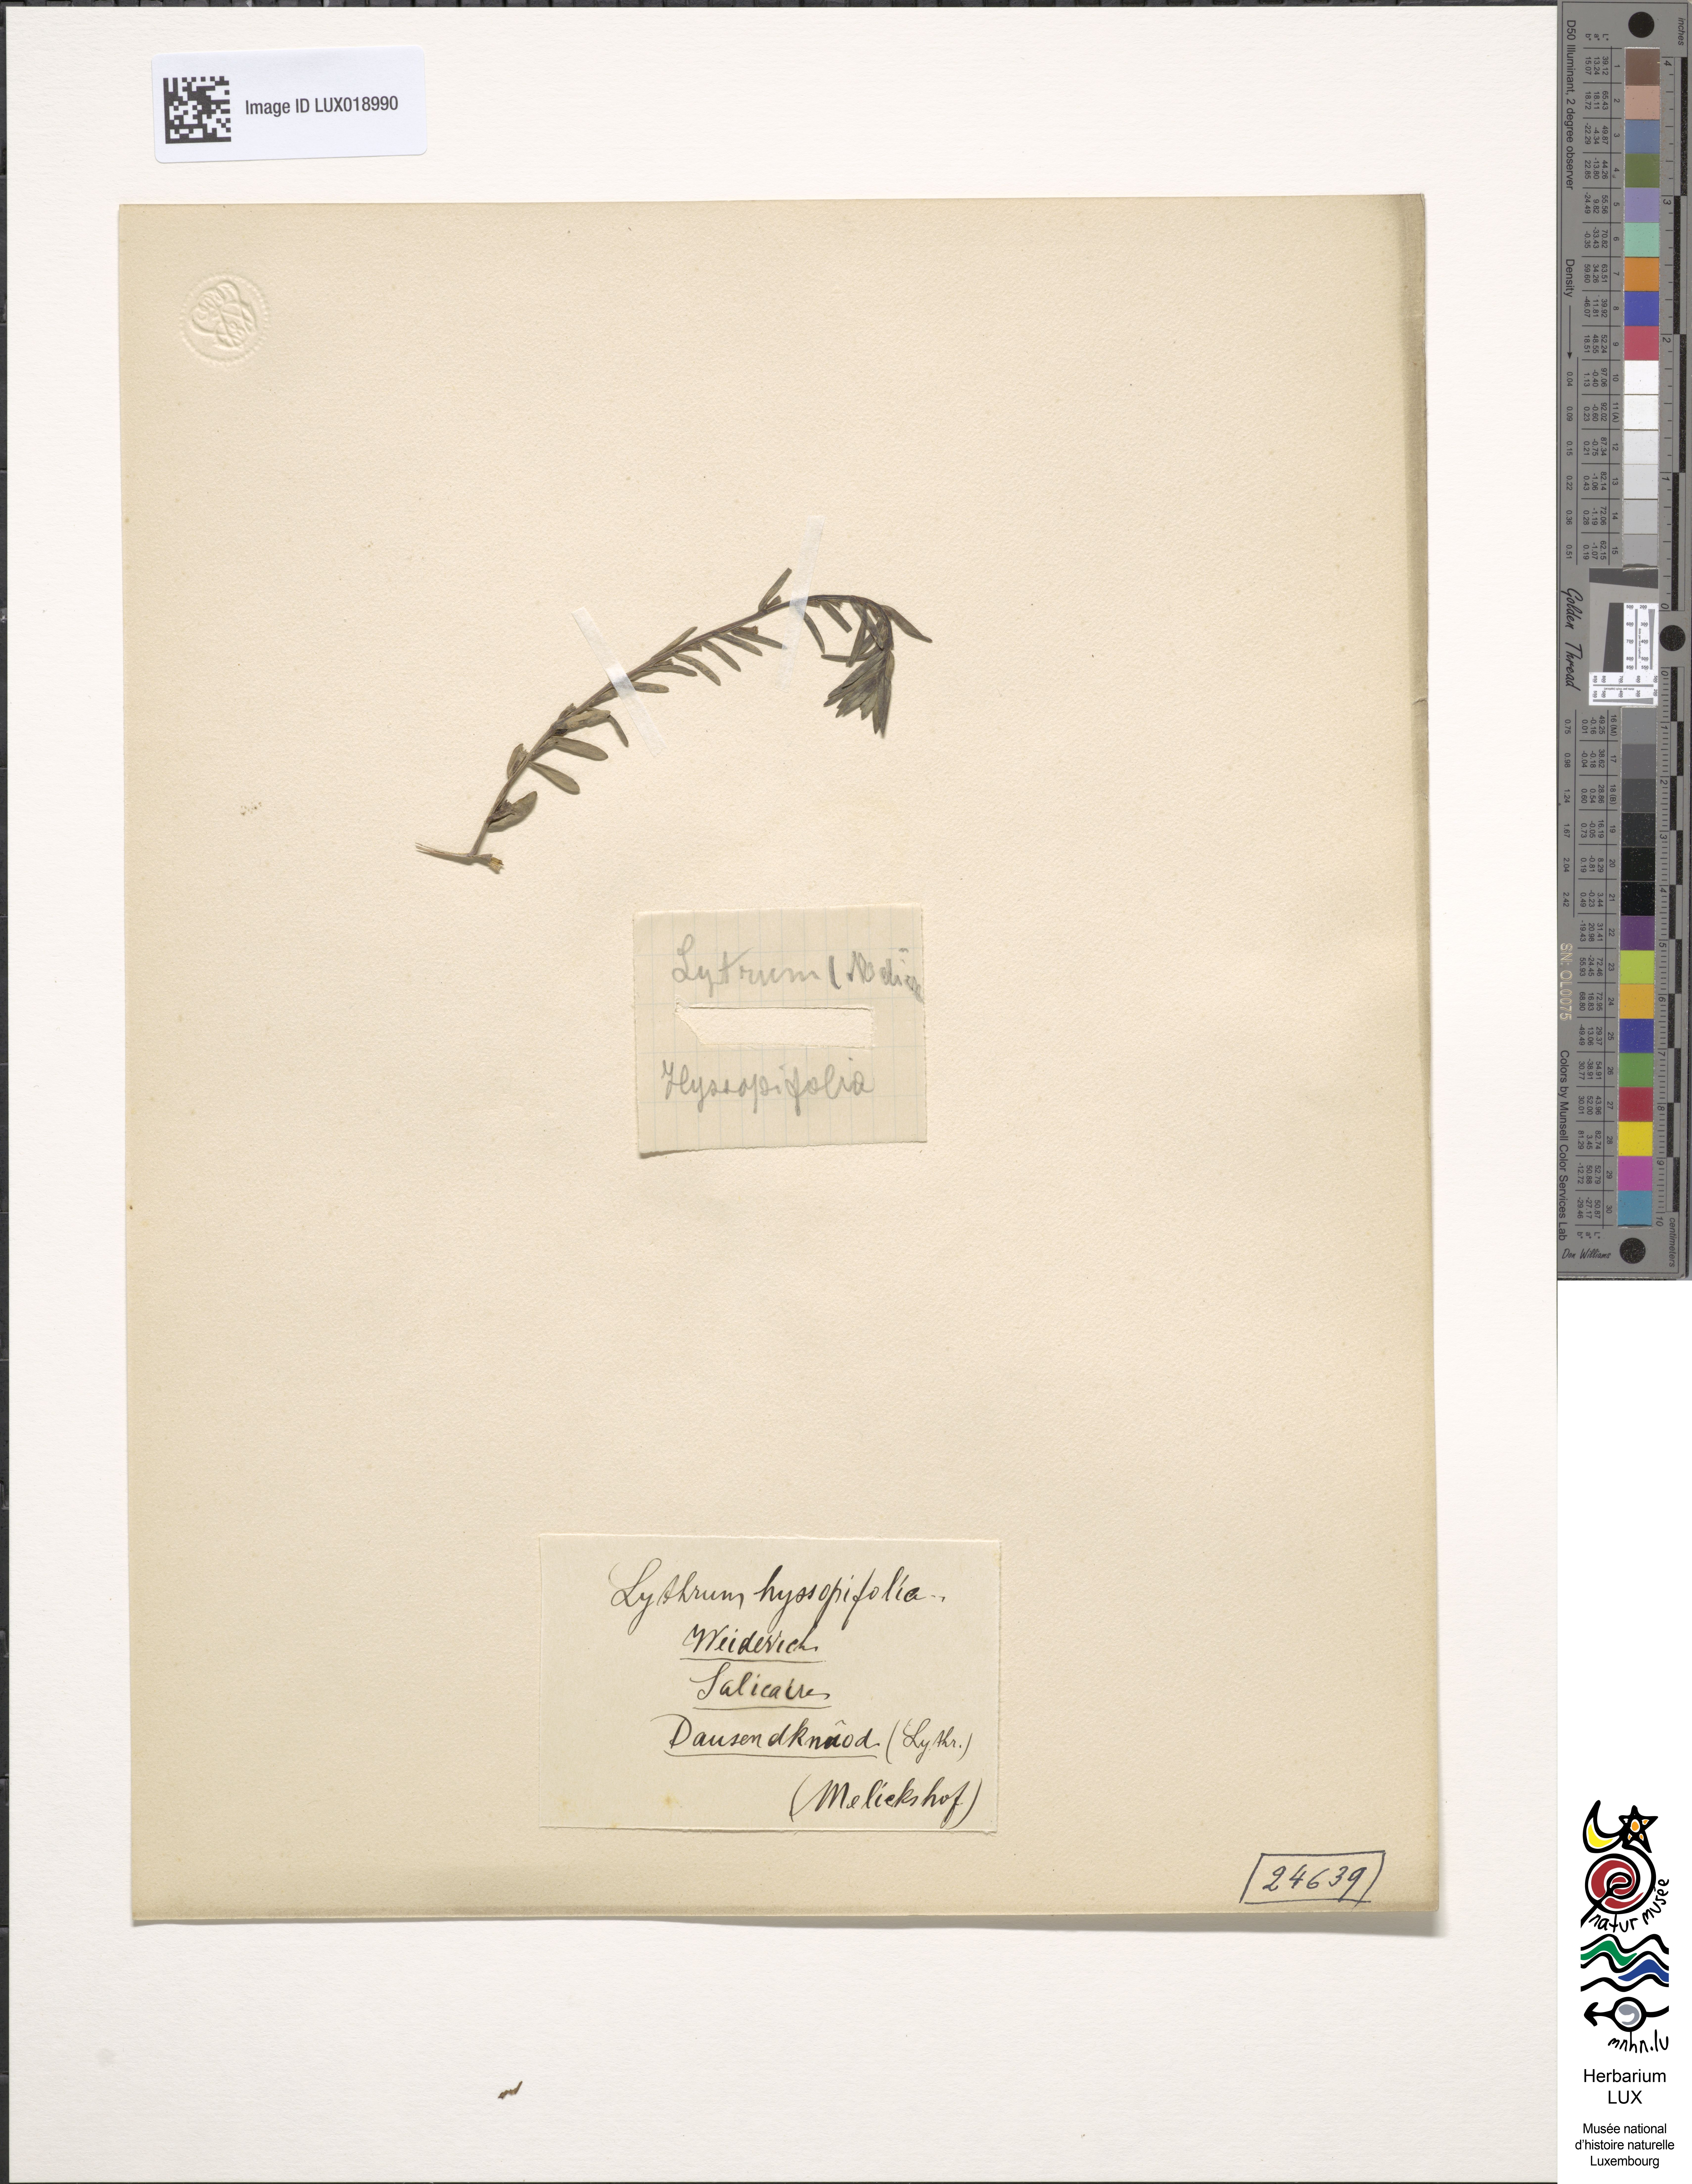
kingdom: Plantae
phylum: Tracheophyta
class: Magnoliopsida
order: Myrtales
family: Lythraceae
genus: Lythrum
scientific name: Lythrum hyssopifolia
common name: Grass-poly
